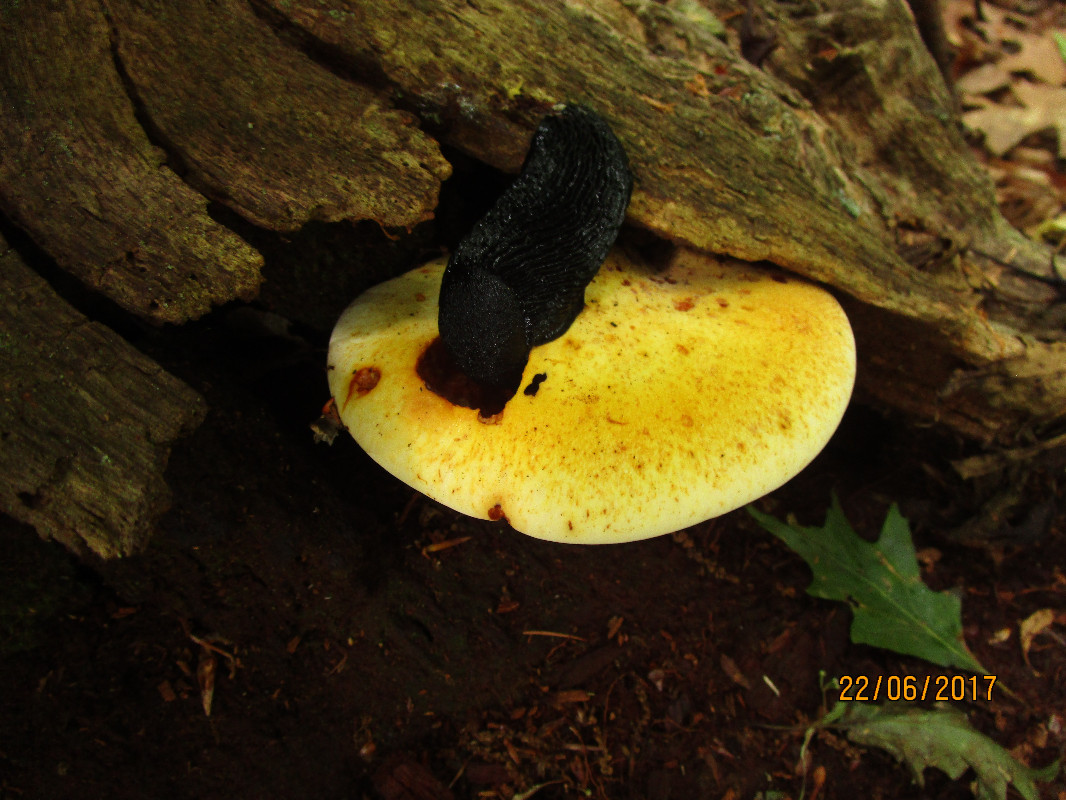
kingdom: Fungi
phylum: Basidiomycota
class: Agaricomycetes
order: Polyporales
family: Fomitopsidaceae
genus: Buglossoporus
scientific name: Buglossoporus quercinus
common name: egetunge
